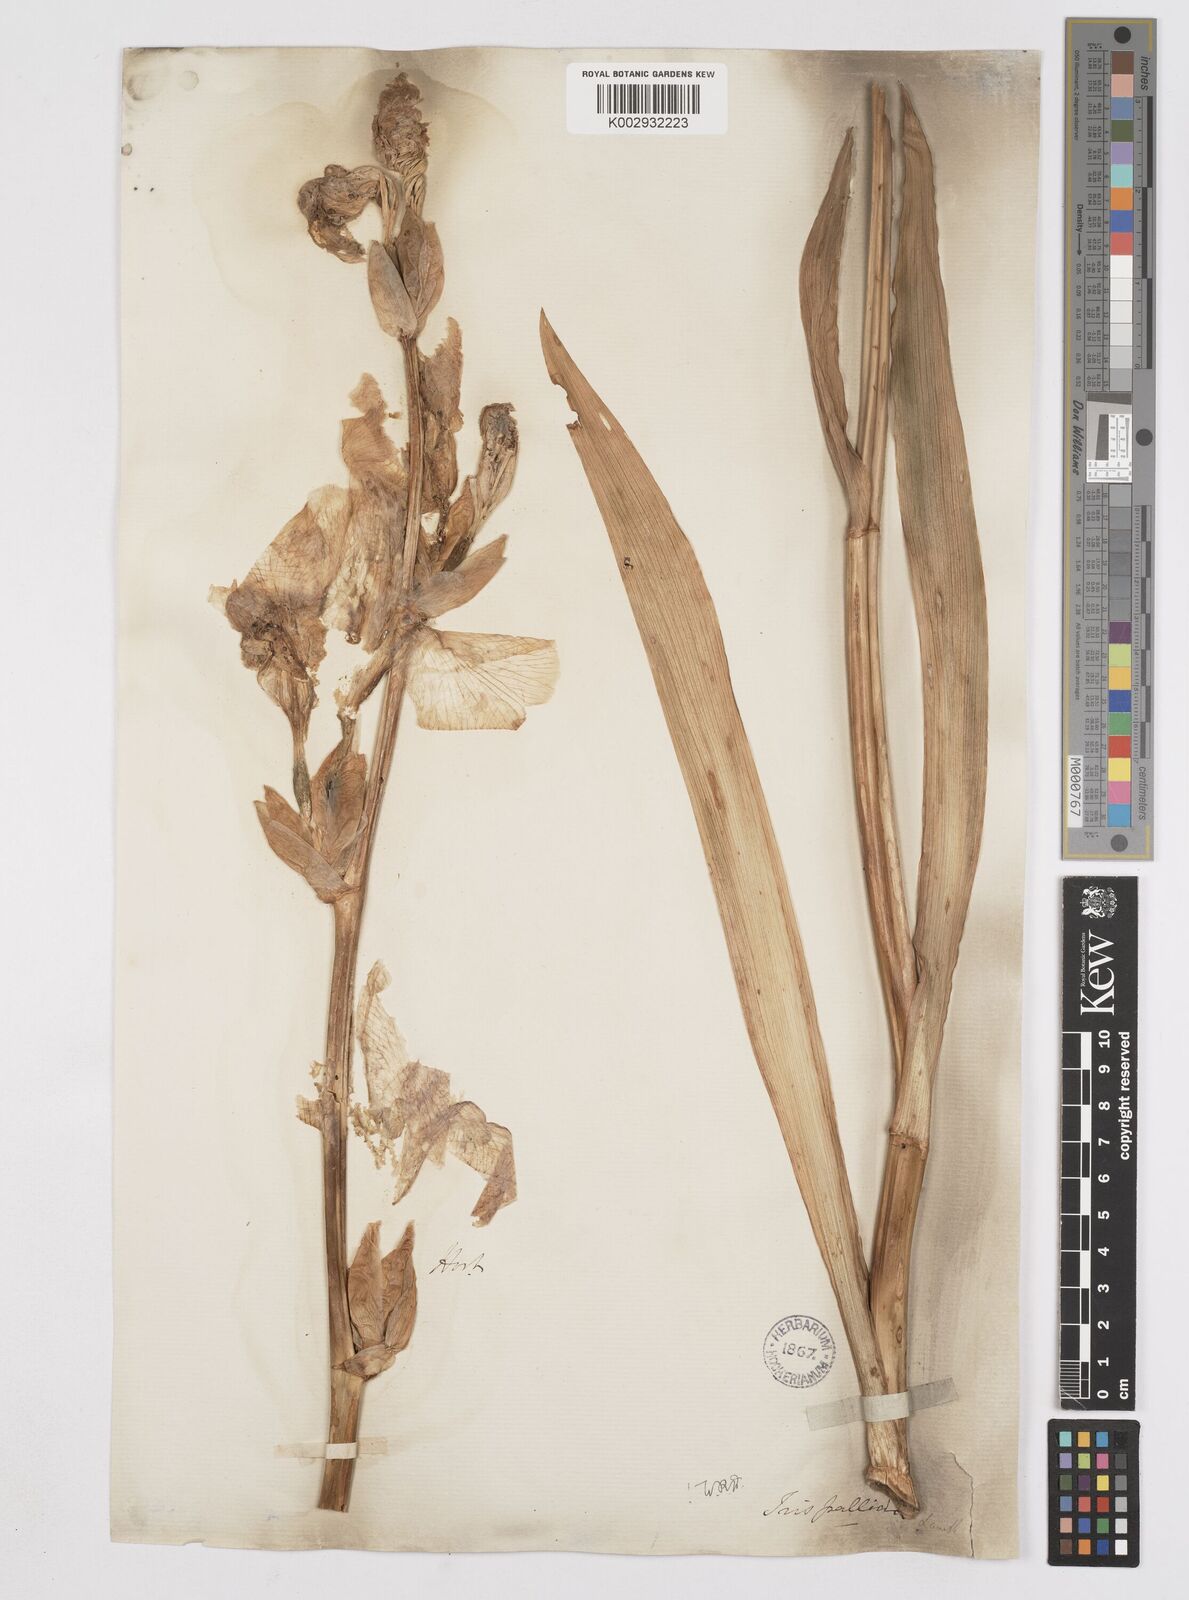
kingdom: Plantae
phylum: Tracheophyta
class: Liliopsida
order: Asparagales
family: Iridaceae
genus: Iris
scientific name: Iris pallida
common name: Sweet iris
